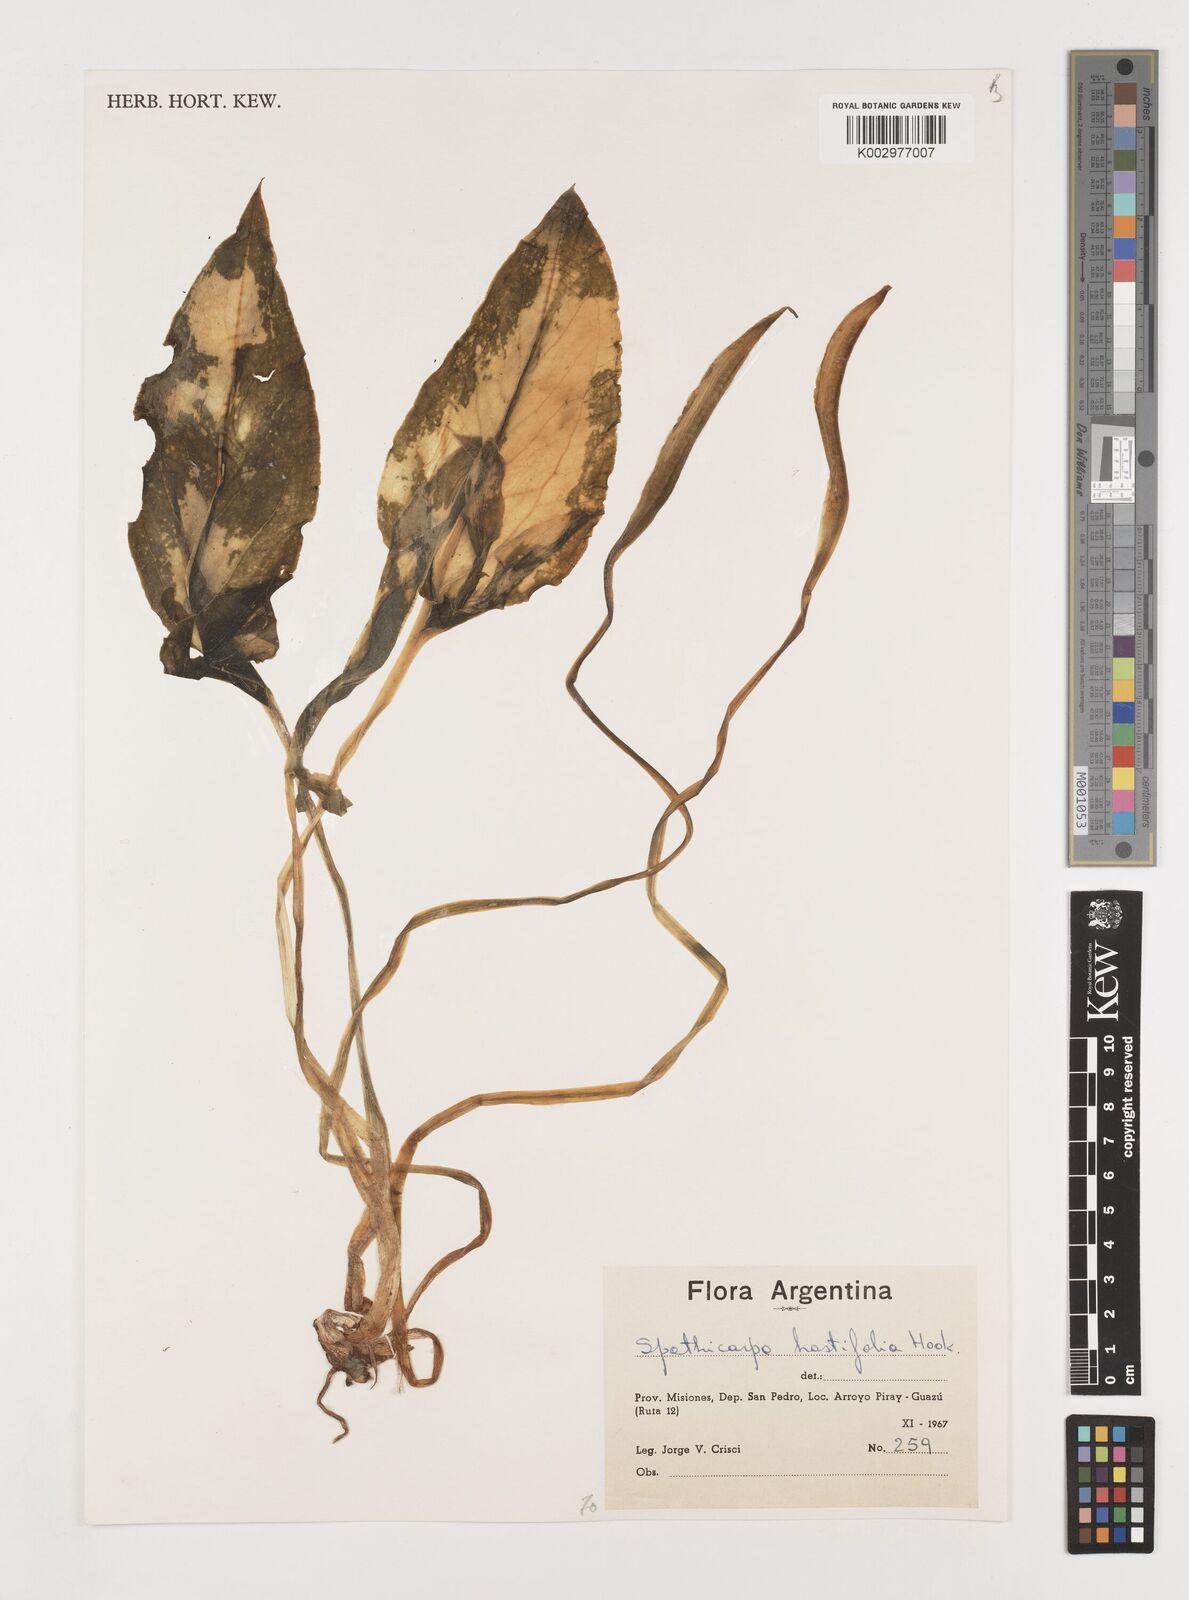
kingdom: Plantae
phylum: Tracheophyta
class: Liliopsida
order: Alismatales
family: Araceae
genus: Spathicarpa
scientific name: Spathicarpa hastifolia
